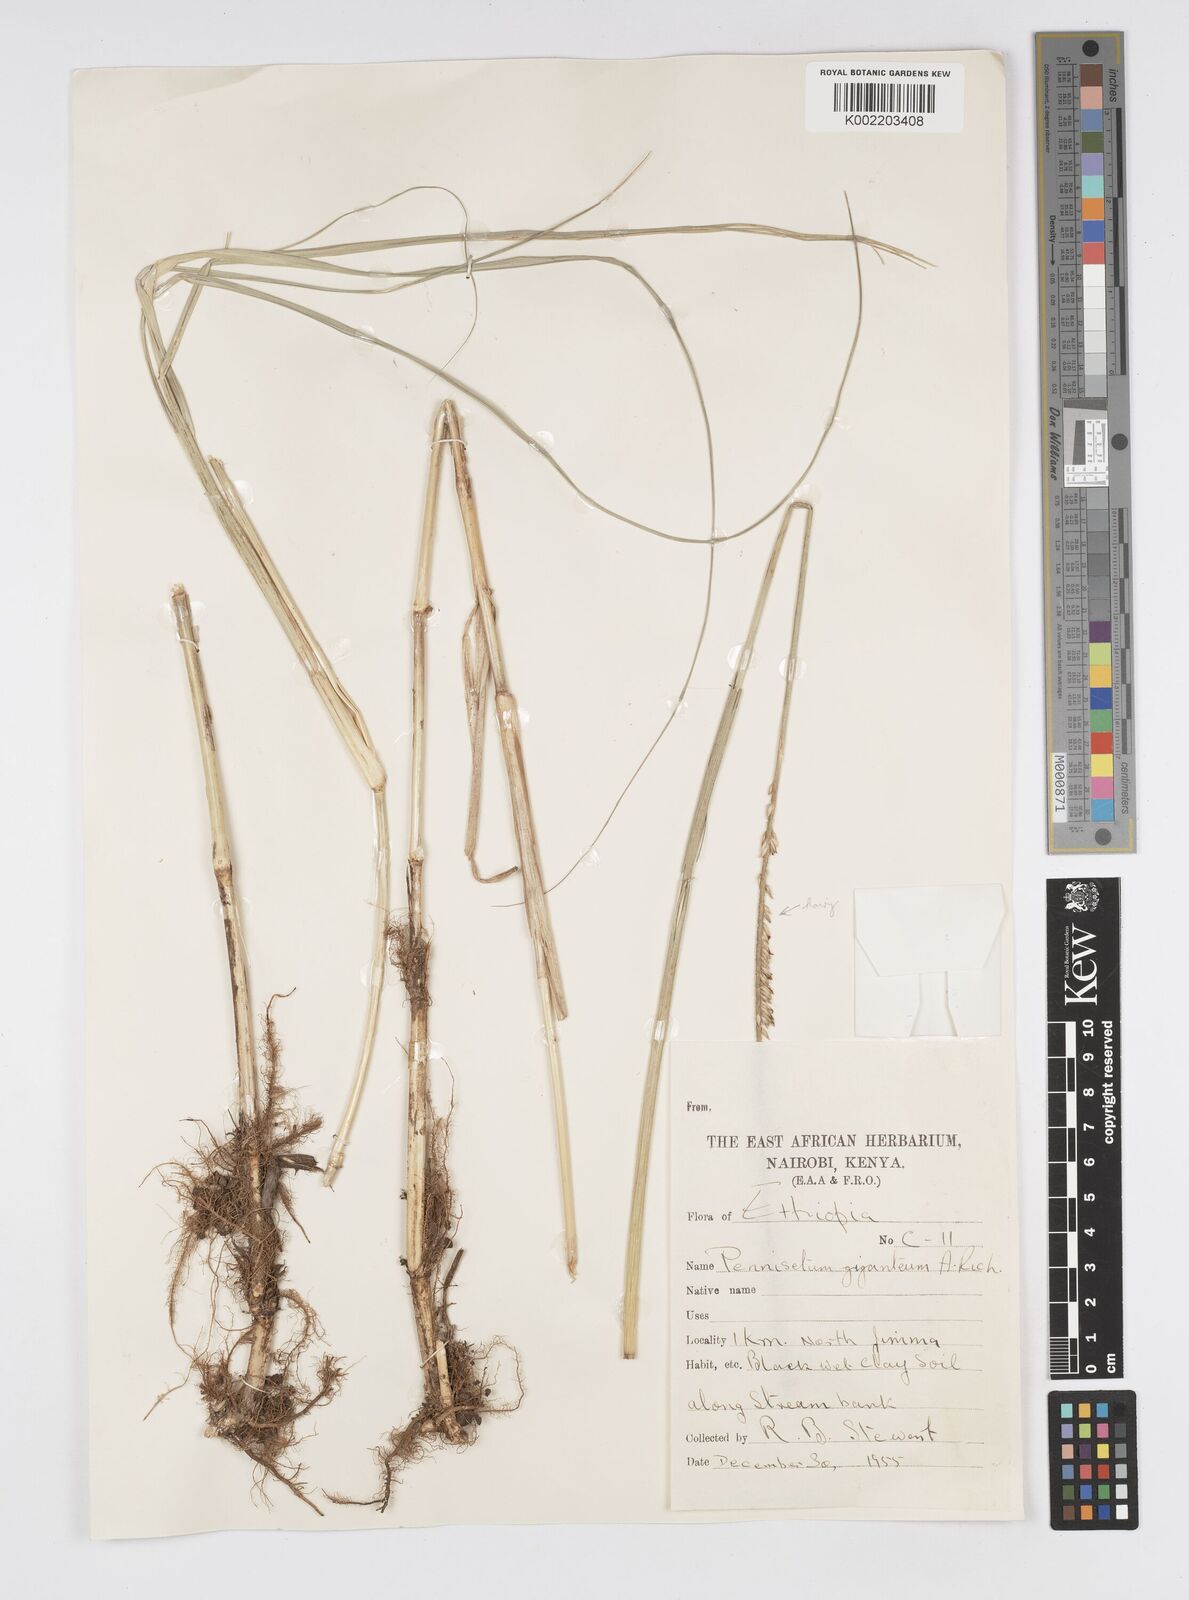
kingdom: Plantae
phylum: Tracheophyta
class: Liliopsida
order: Poales
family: Poaceae
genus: Cenchrus
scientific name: Cenchrus caudatus
